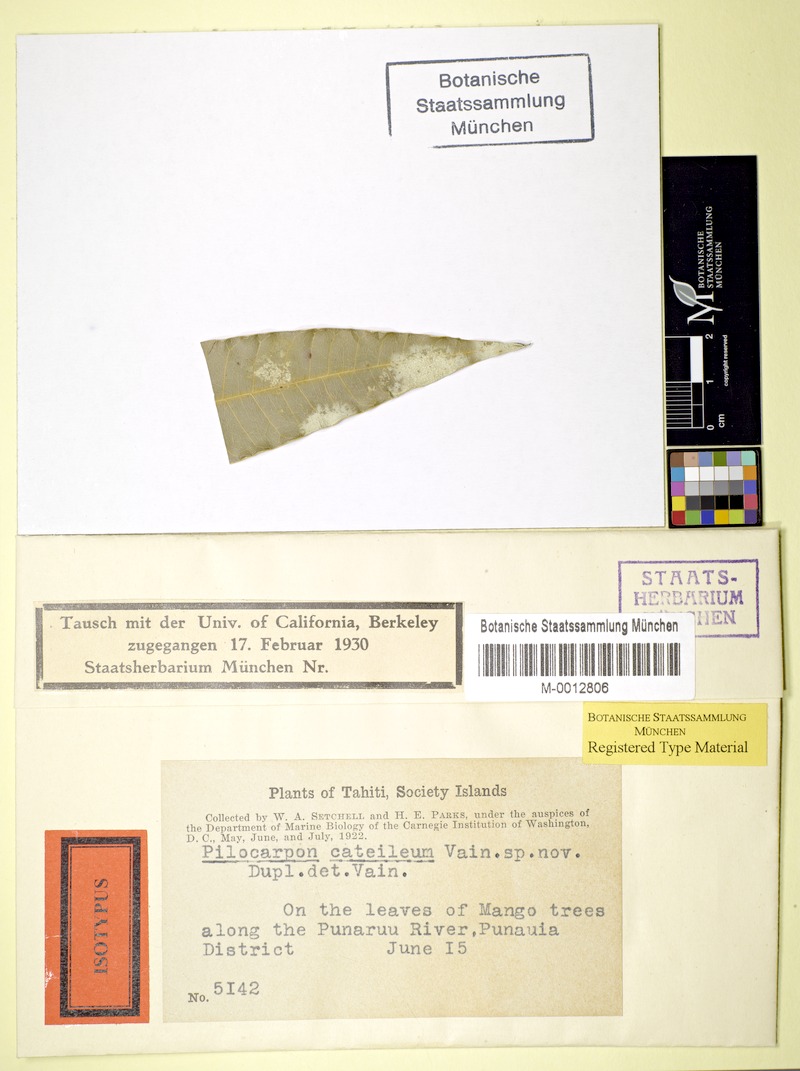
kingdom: Fungi
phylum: Ascomycota
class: Lecanoromycetes
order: Lecanorales
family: Ramalinaceae
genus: Badimia
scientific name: Badimia cateilea
